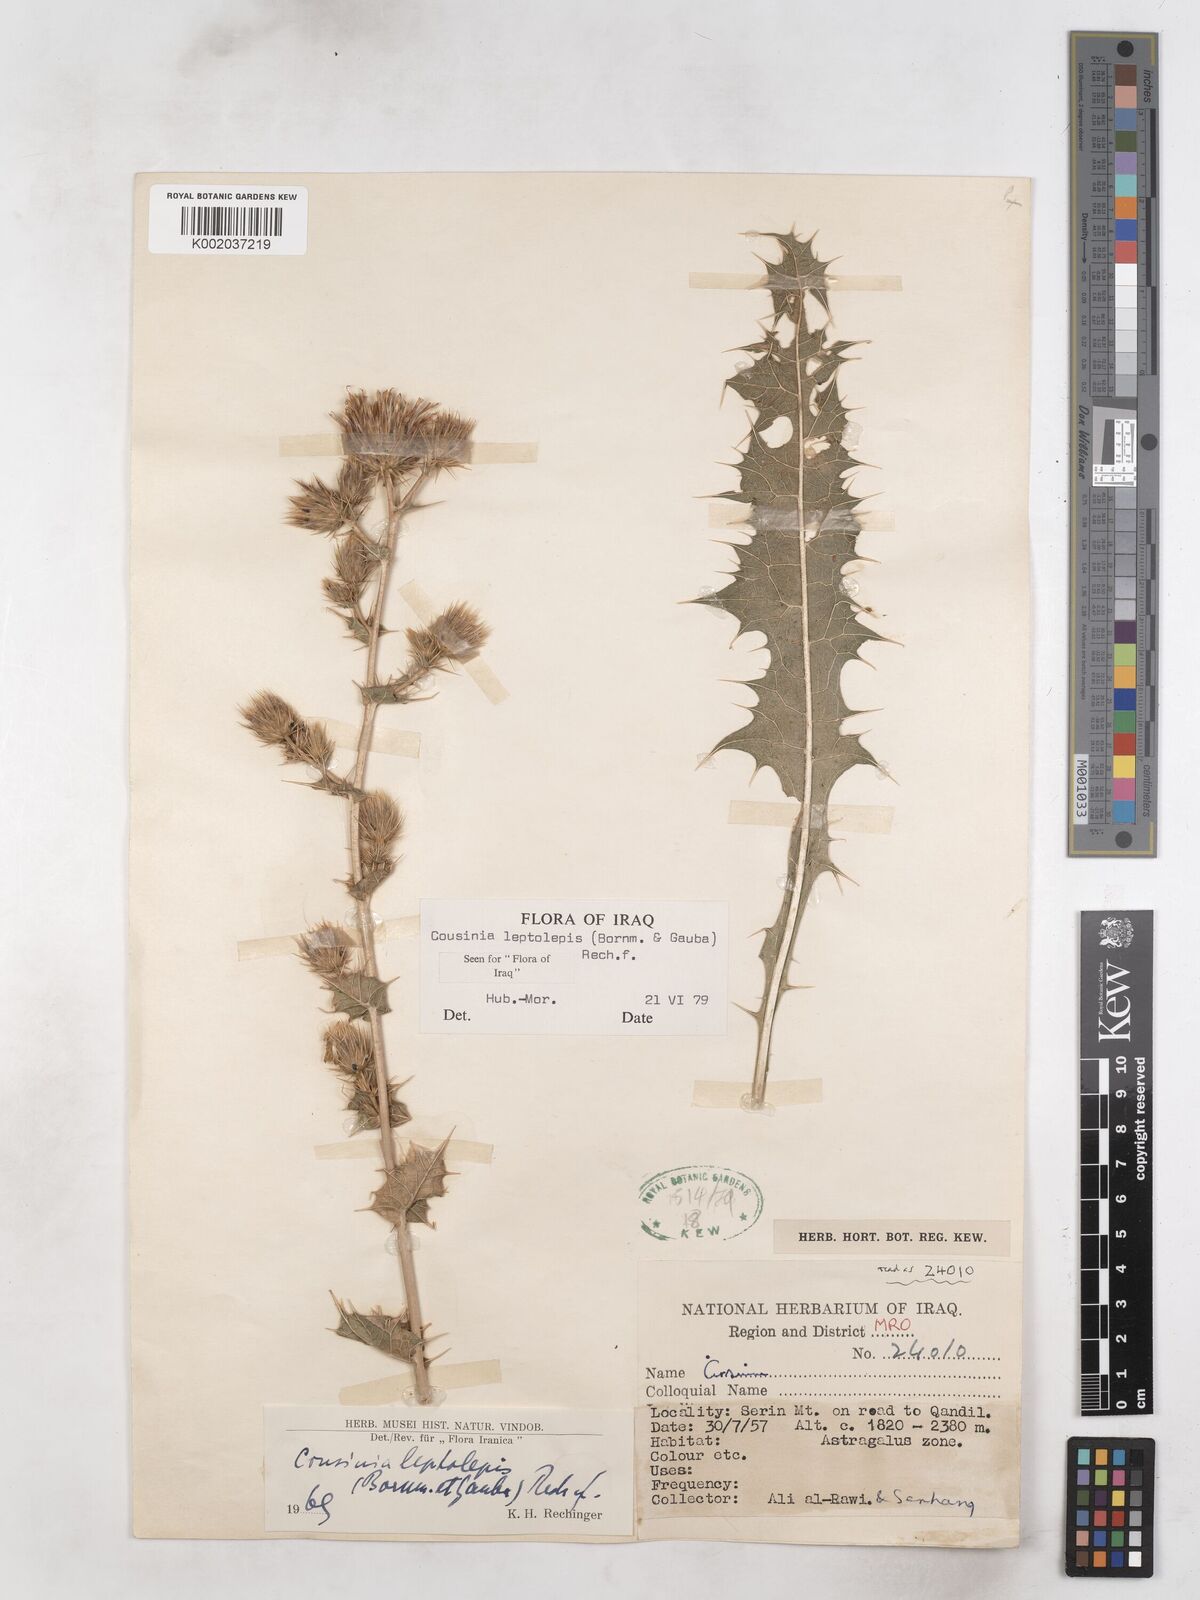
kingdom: Plantae
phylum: Tracheophyta
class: Magnoliopsida
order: Asterales
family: Asteraceae
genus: Cousinia
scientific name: Cousinia leptolepis
